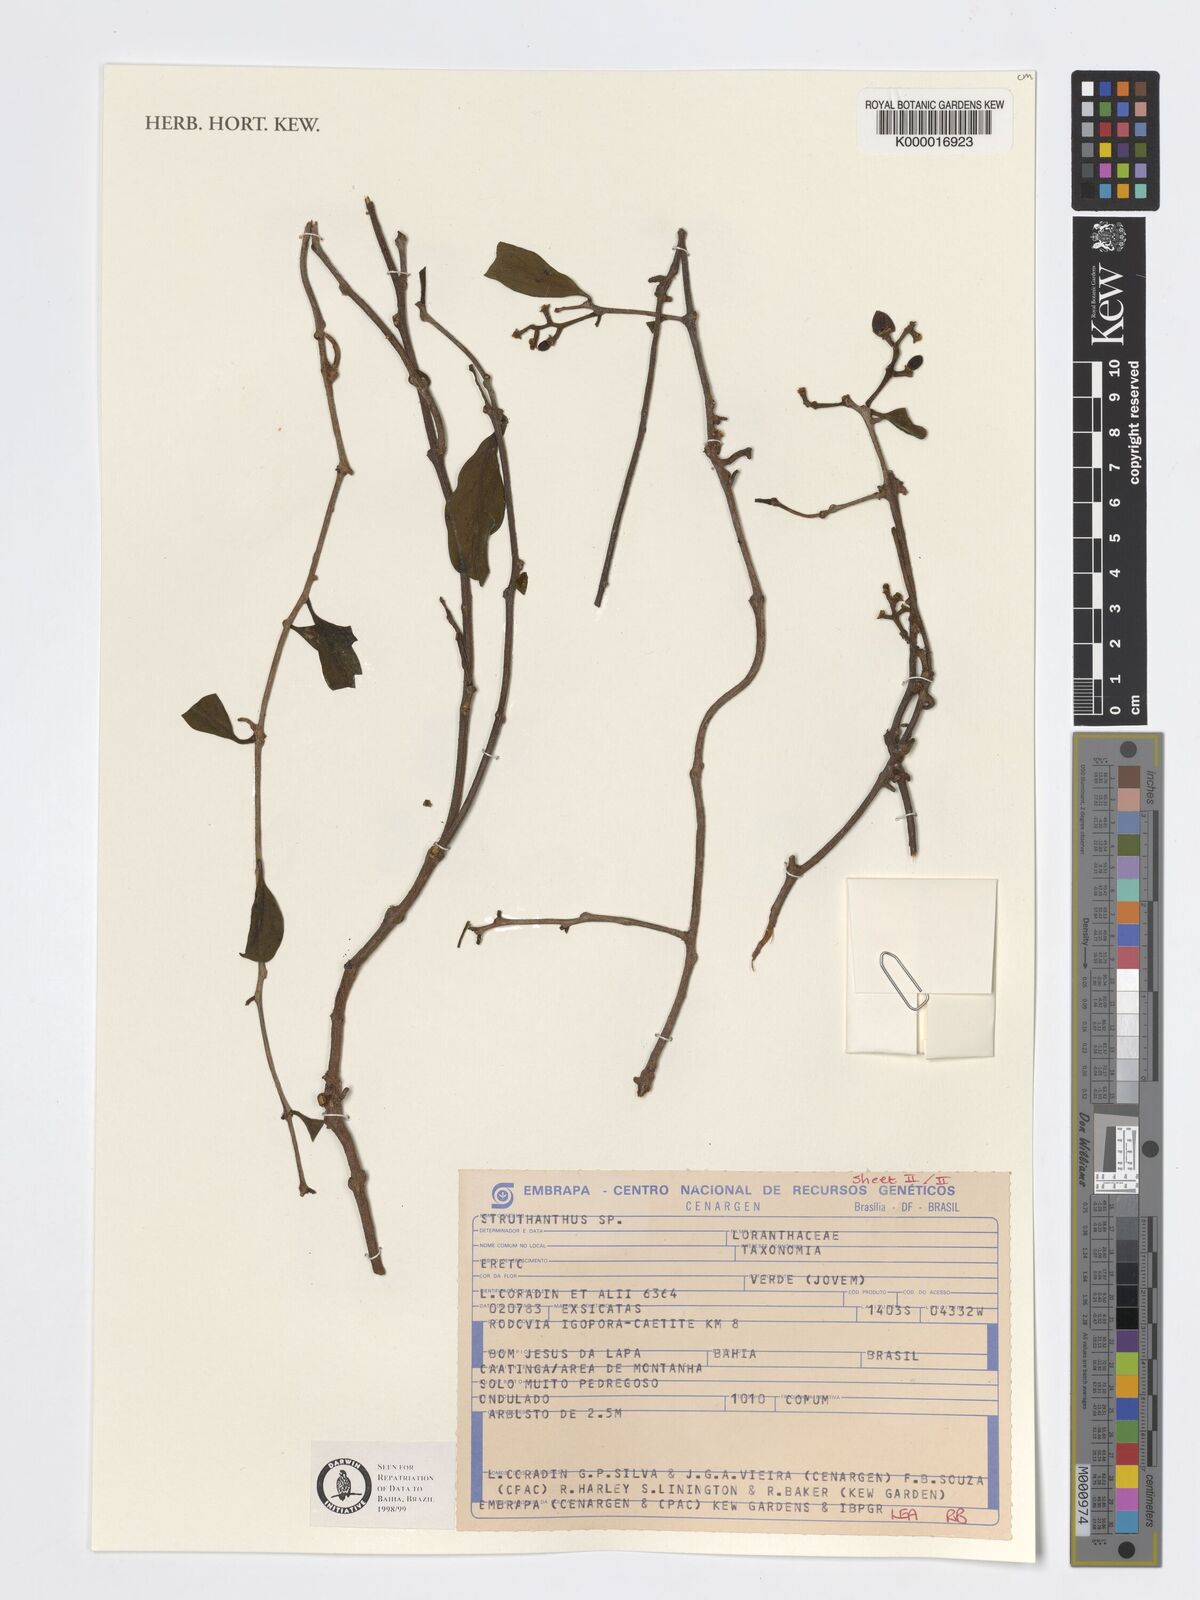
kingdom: Plantae
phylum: Tracheophyta
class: Magnoliopsida
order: Santalales
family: Loranthaceae
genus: Struthanthus
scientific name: Struthanthus
